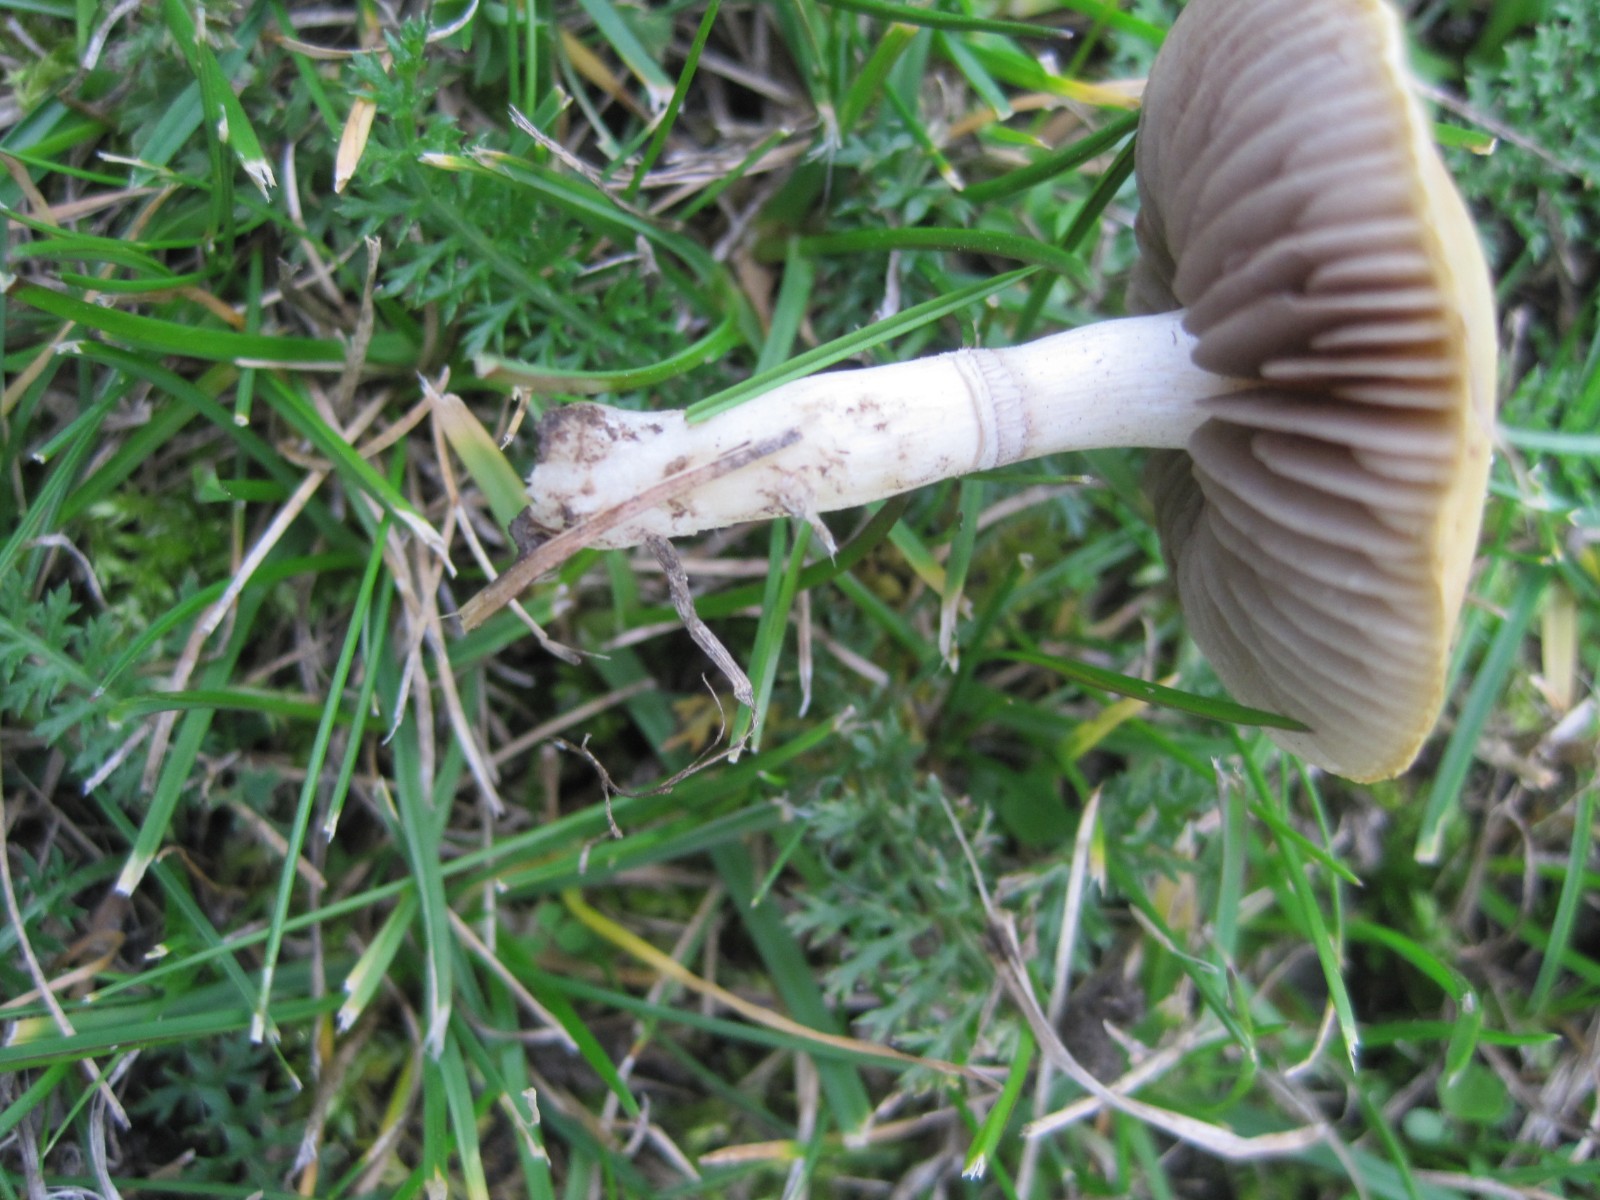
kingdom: Fungi
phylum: Basidiomycota
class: Agaricomycetes
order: Agaricales
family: Hymenogastraceae
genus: Psilocybe
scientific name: Psilocybe coronilla
